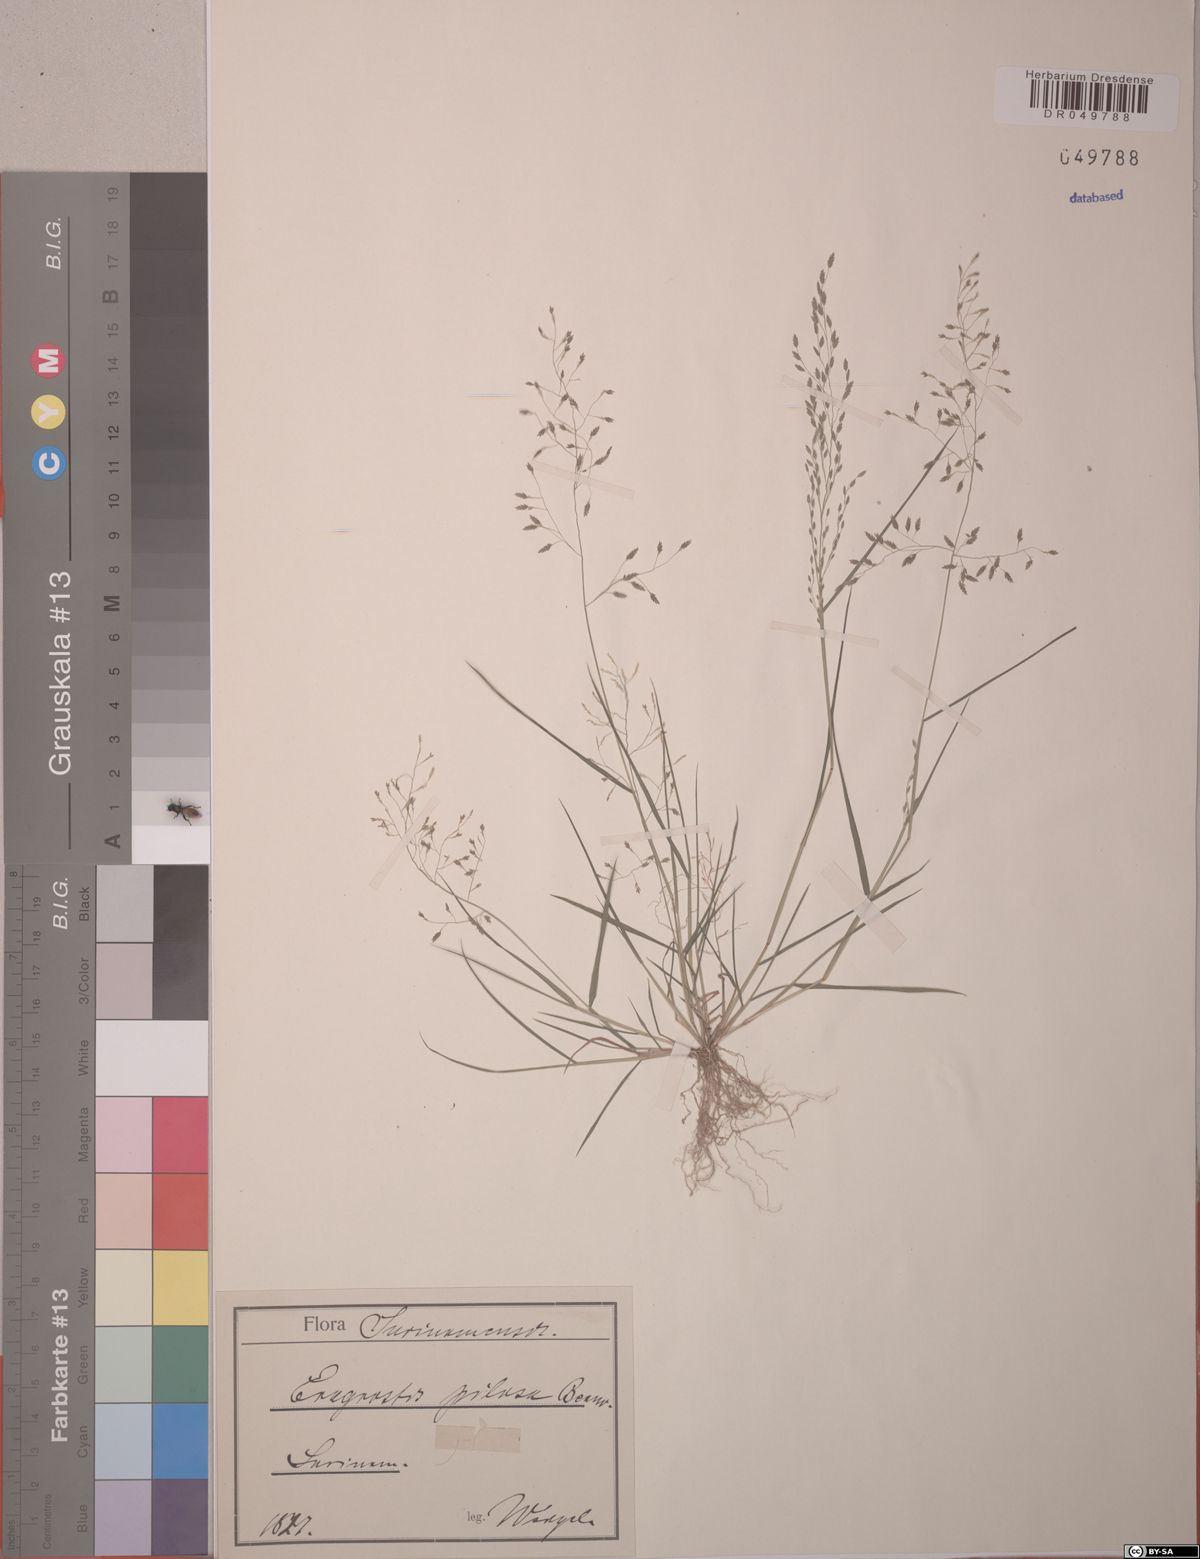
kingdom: Plantae
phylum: Tracheophyta
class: Liliopsida
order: Poales
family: Poaceae
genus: Eragrostis
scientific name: Eragrostis pilosa
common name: Indian lovegrass
